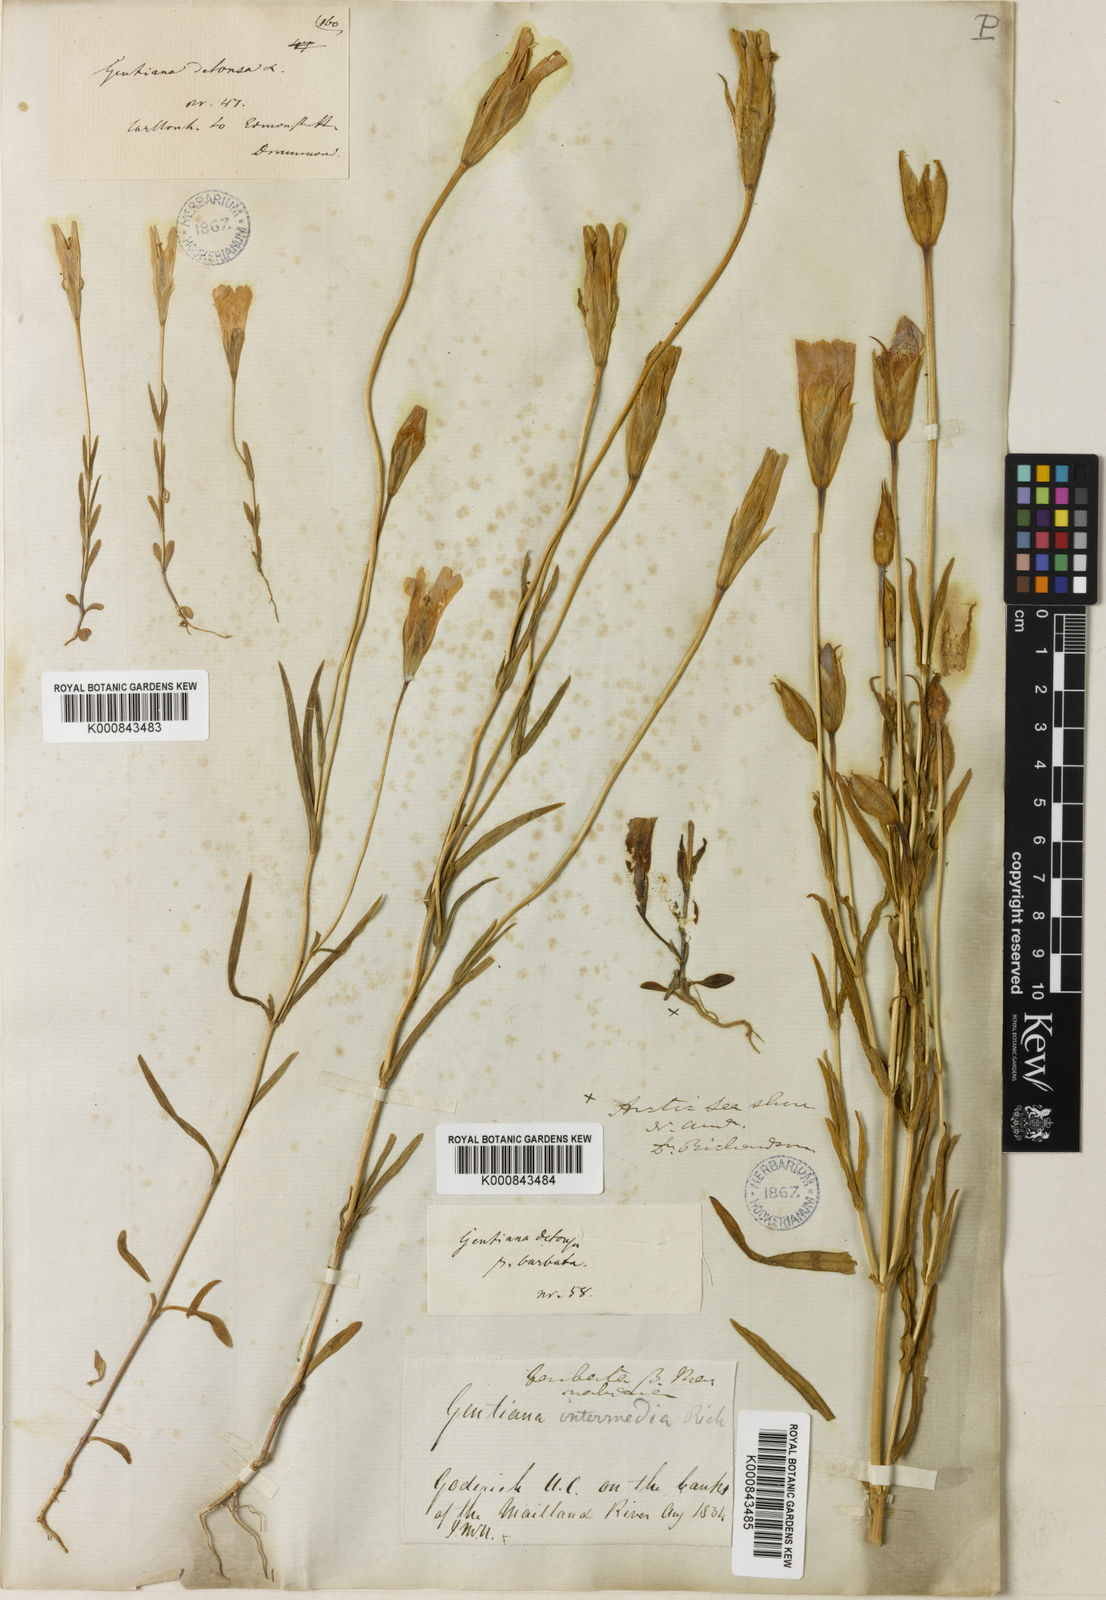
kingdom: Plantae
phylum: Tracheophyta
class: Magnoliopsida
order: Gentianales
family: Gentianaceae
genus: Gentianopsis
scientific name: Gentianopsis crinita
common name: Fringed-gentian
